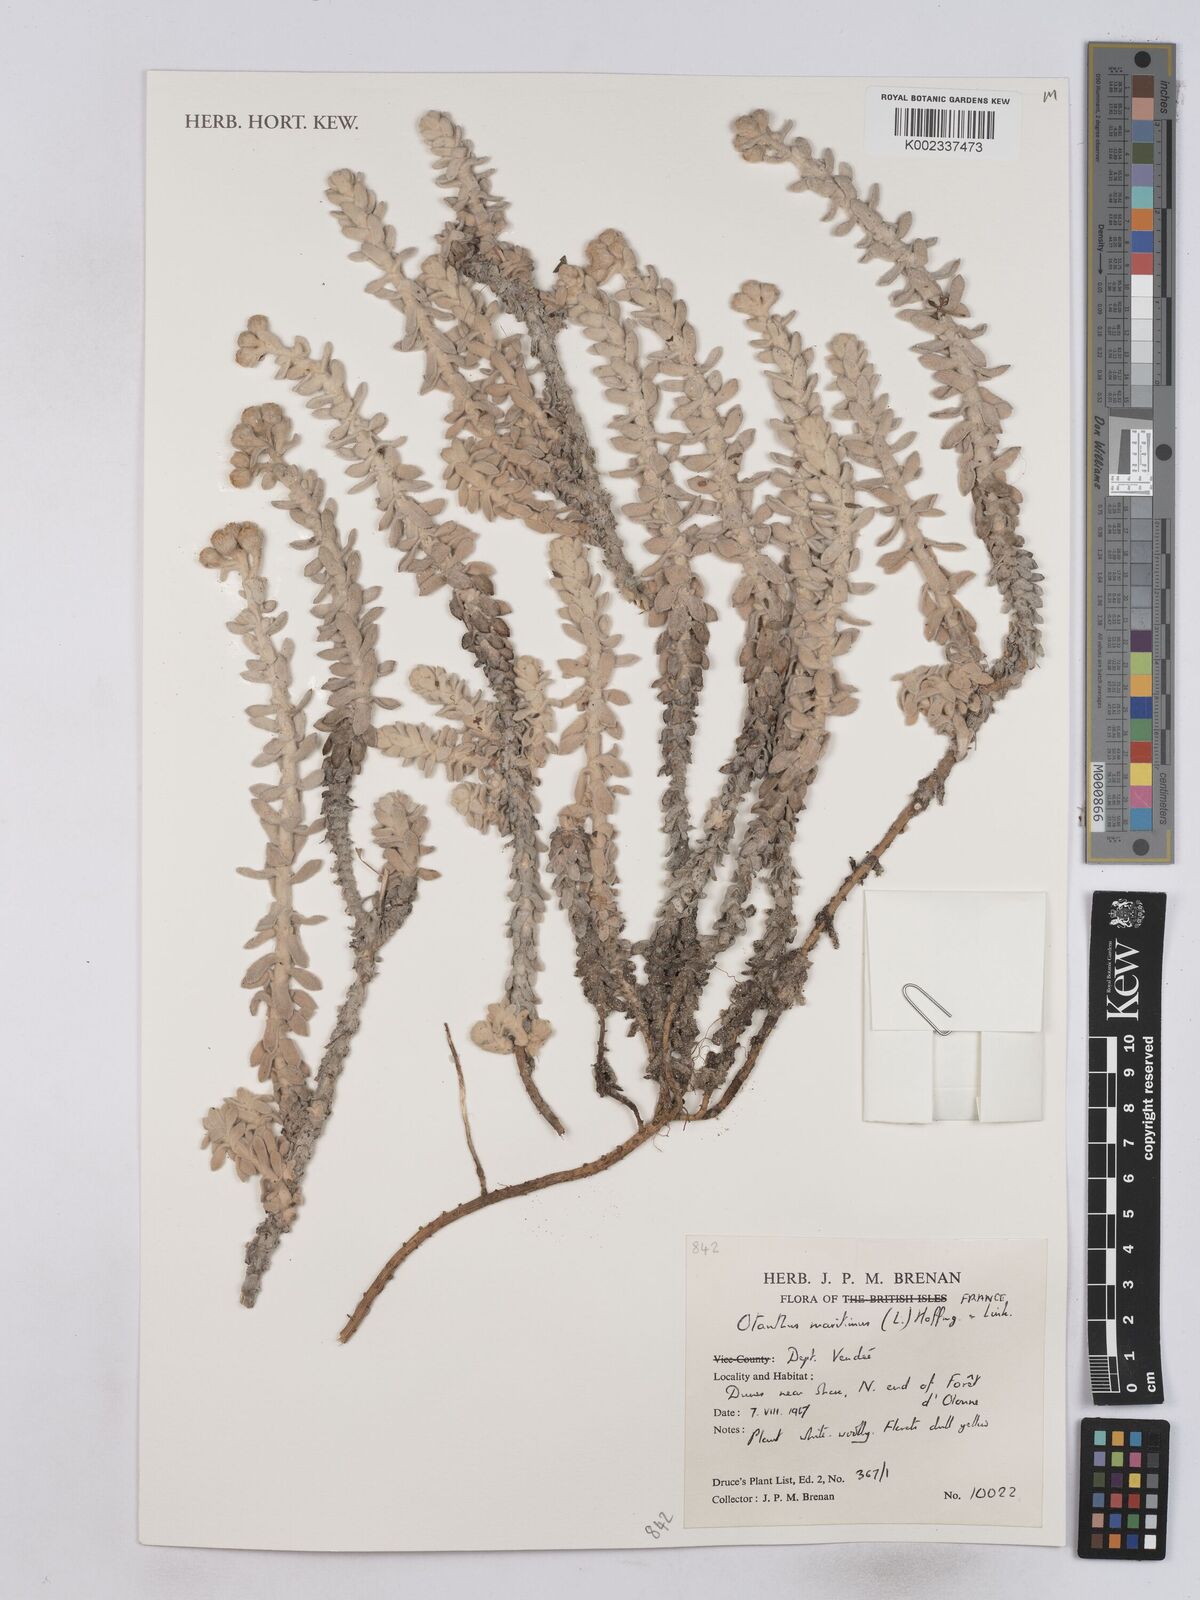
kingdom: Plantae
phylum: Tracheophyta
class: Magnoliopsida
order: Asterales
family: Asteraceae
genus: Achillea
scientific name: Achillea maritima
